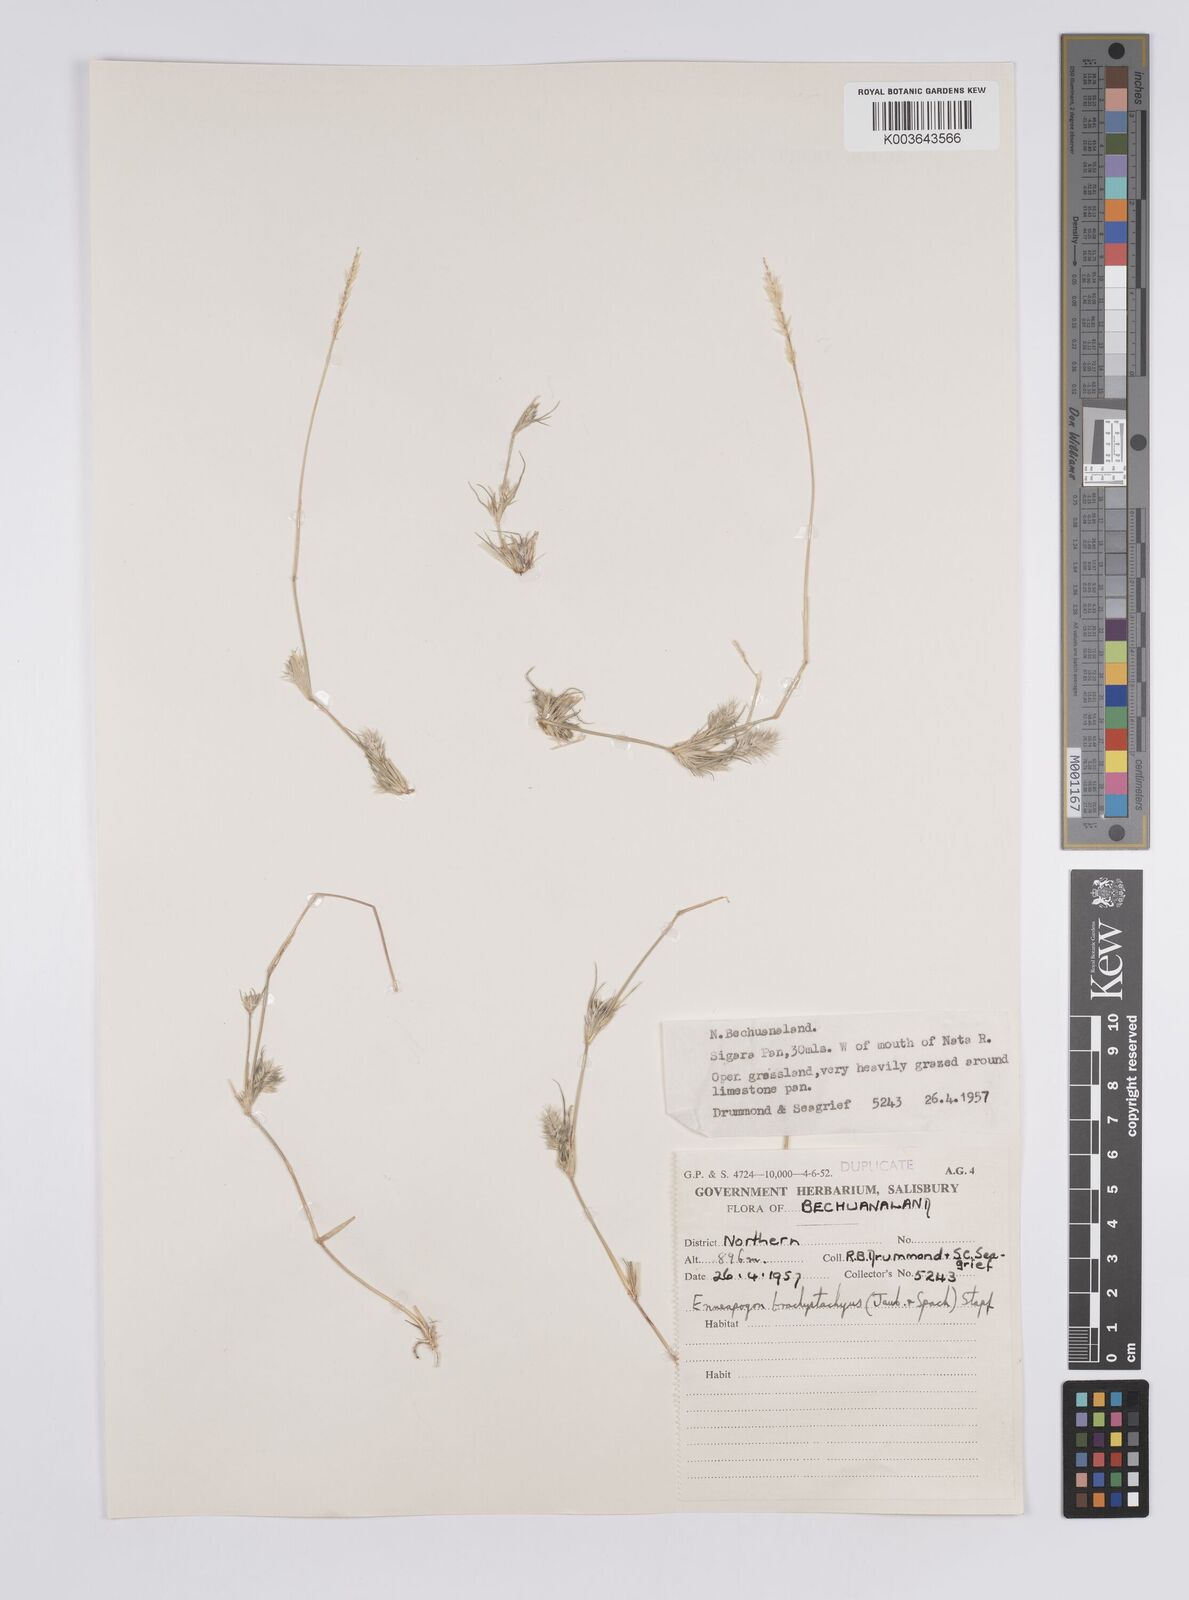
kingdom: Plantae
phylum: Tracheophyta
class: Liliopsida
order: Poales
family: Poaceae
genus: Enneapogon
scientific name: Enneapogon desvauxii
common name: Feather pappus grass
